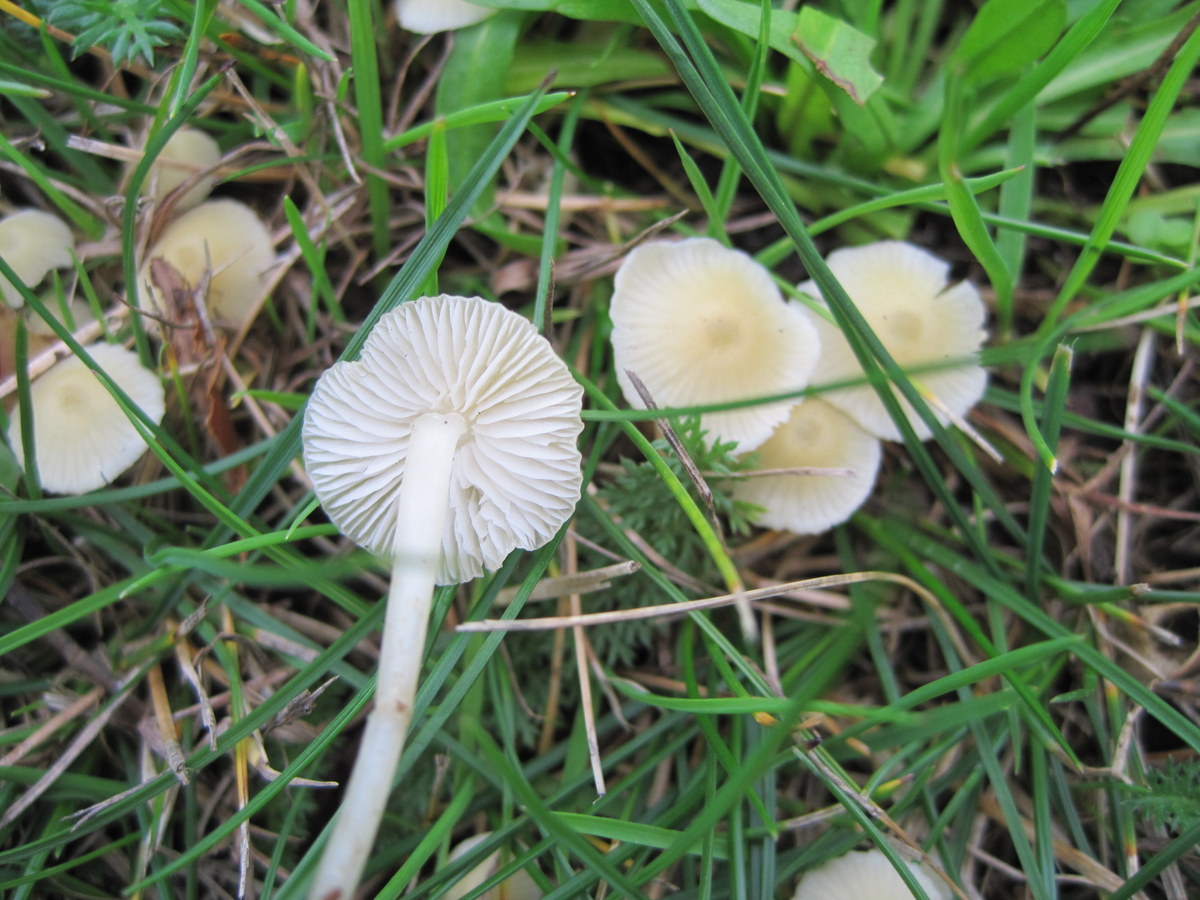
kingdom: Fungi
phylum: Basidiomycota
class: Agaricomycetes
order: Agaricales
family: Mycenaceae
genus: Atheniella
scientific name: Atheniella flavoalba
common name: gulhvid huesvamp
